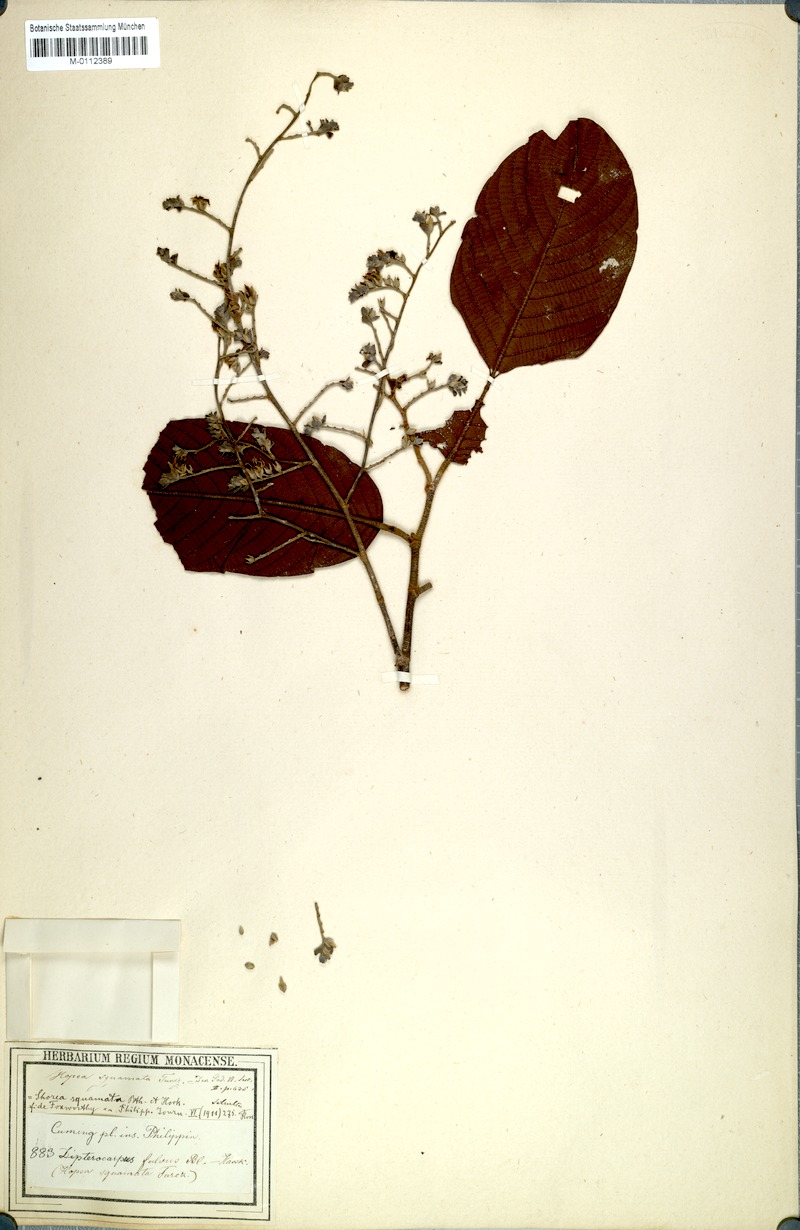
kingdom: Plantae
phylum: Tracheophyta
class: Magnoliopsida
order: Malvales
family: Dipterocarpaceae
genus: Shorea
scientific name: Shorea palosapis
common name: Philippine mahogany
